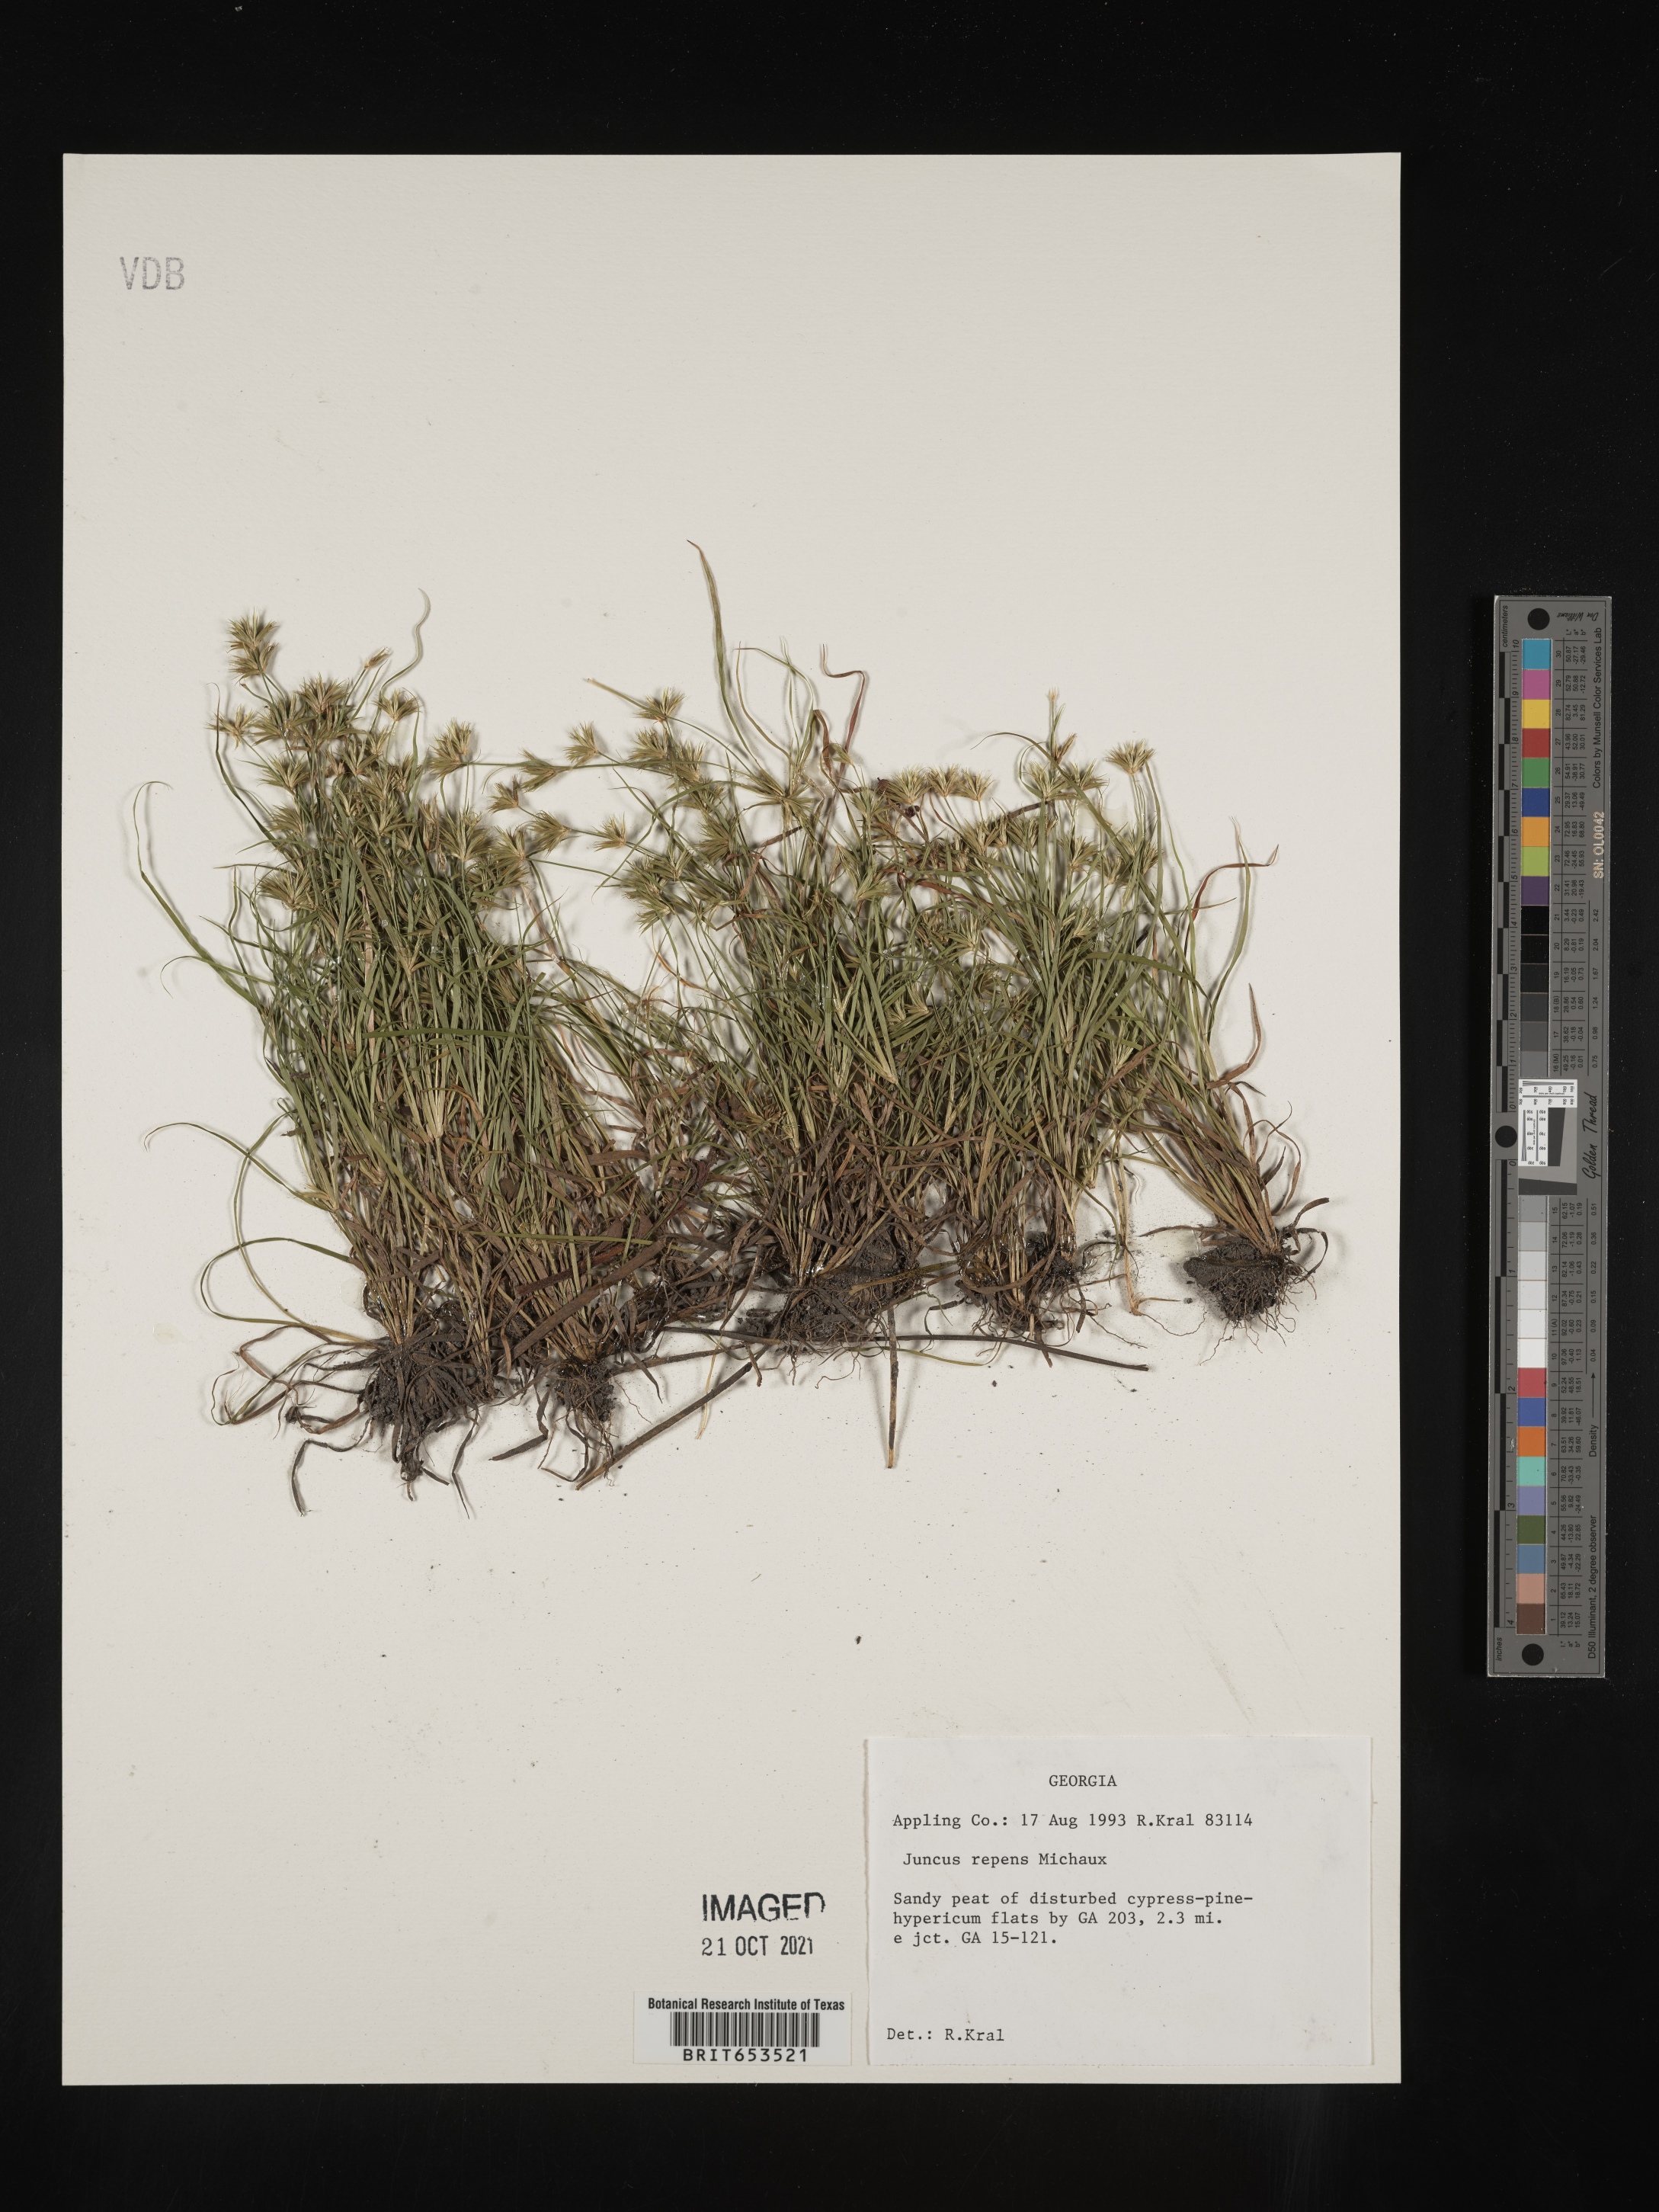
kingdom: Plantae
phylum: Tracheophyta
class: Liliopsida
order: Poales
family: Juncaceae
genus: Juncus
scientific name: Juncus repens
